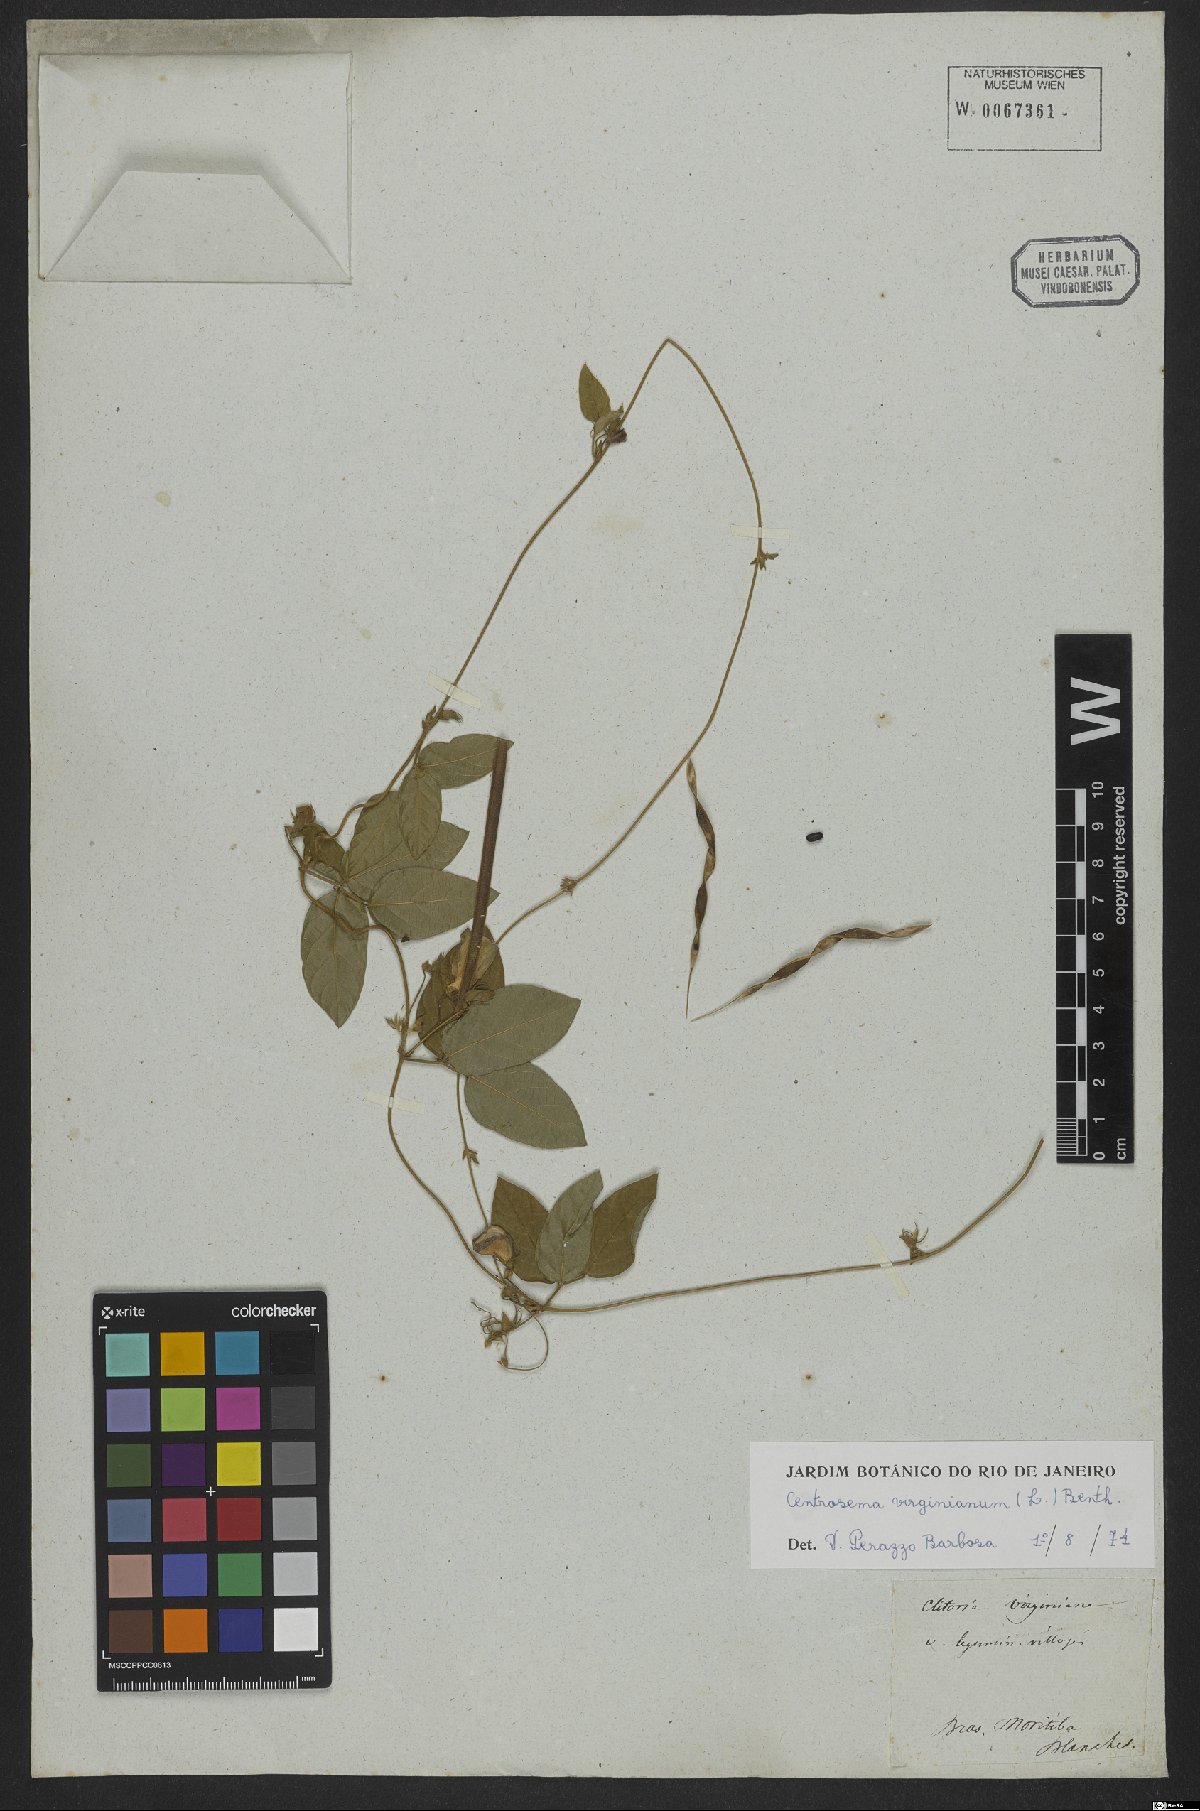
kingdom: Plantae
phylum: Tracheophyta
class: Magnoliopsida
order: Fabales
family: Fabaceae
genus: Centrosema
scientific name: Centrosema virginianum
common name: Butterfly-pea
